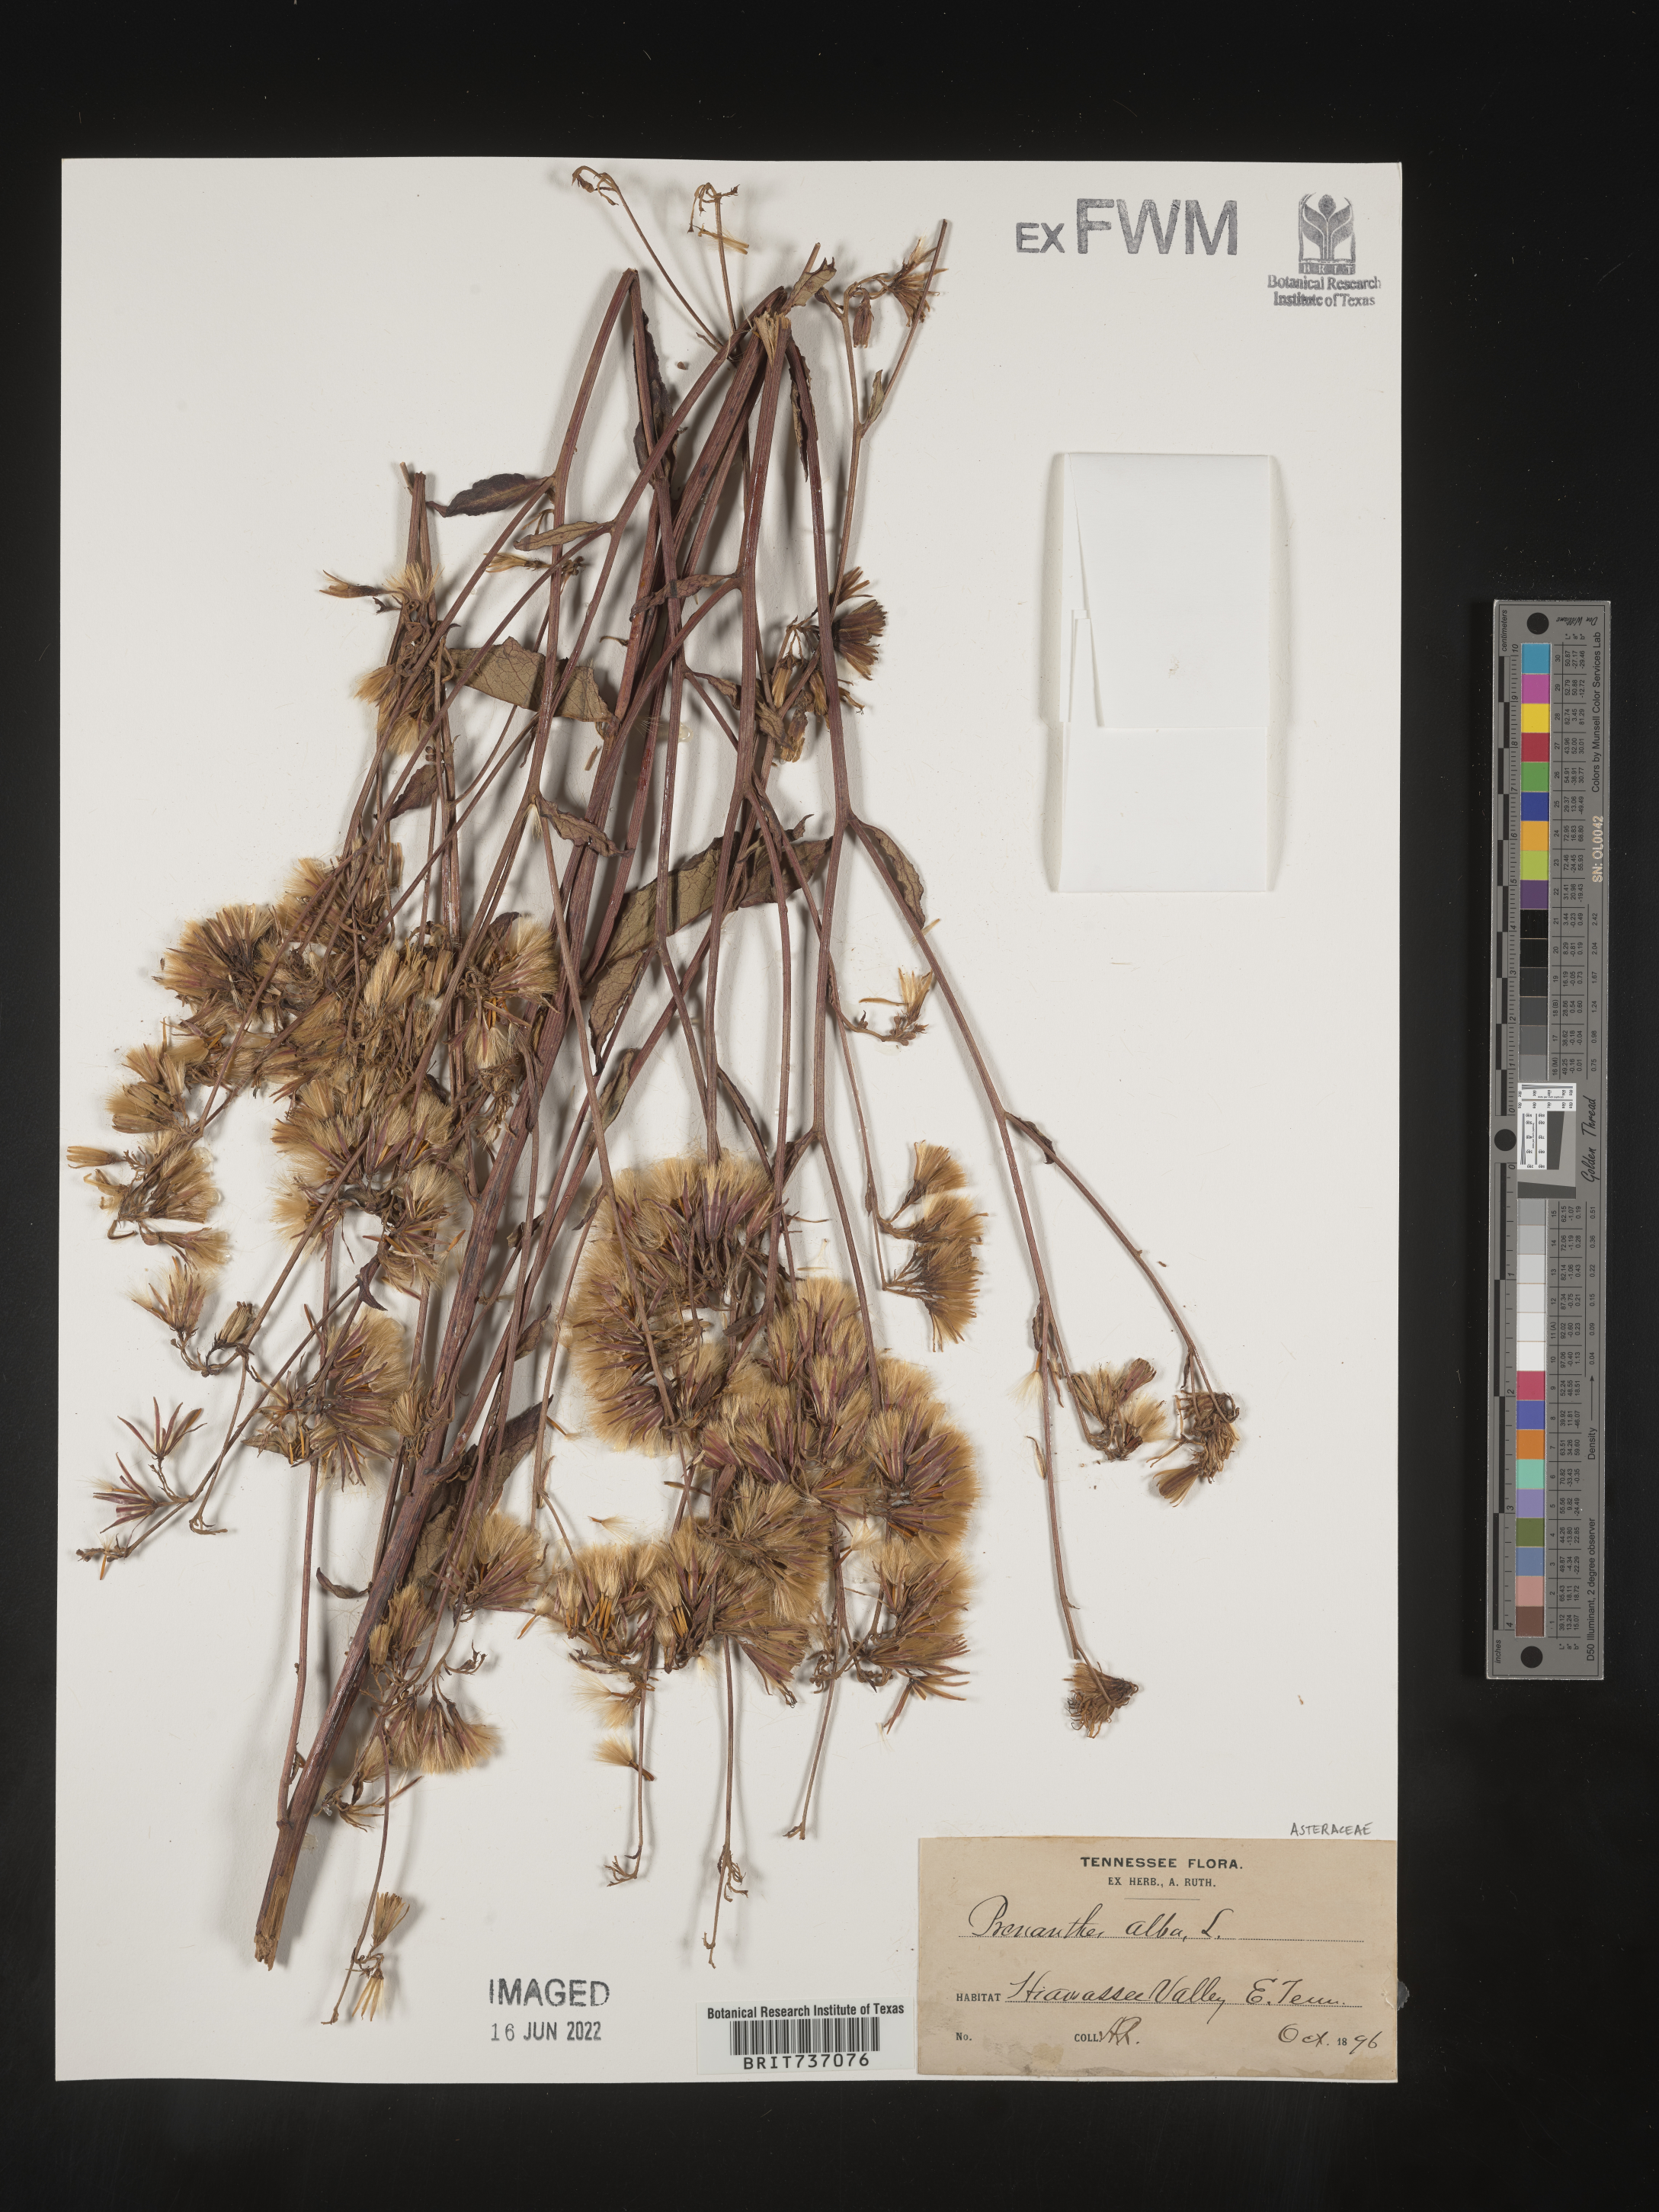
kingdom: Plantae
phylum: Tracheophyta
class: Magnoliopsida
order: Asterales
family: Asteraceae
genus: Nabalus
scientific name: Nabalus albus
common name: White rattlesnakeroot
